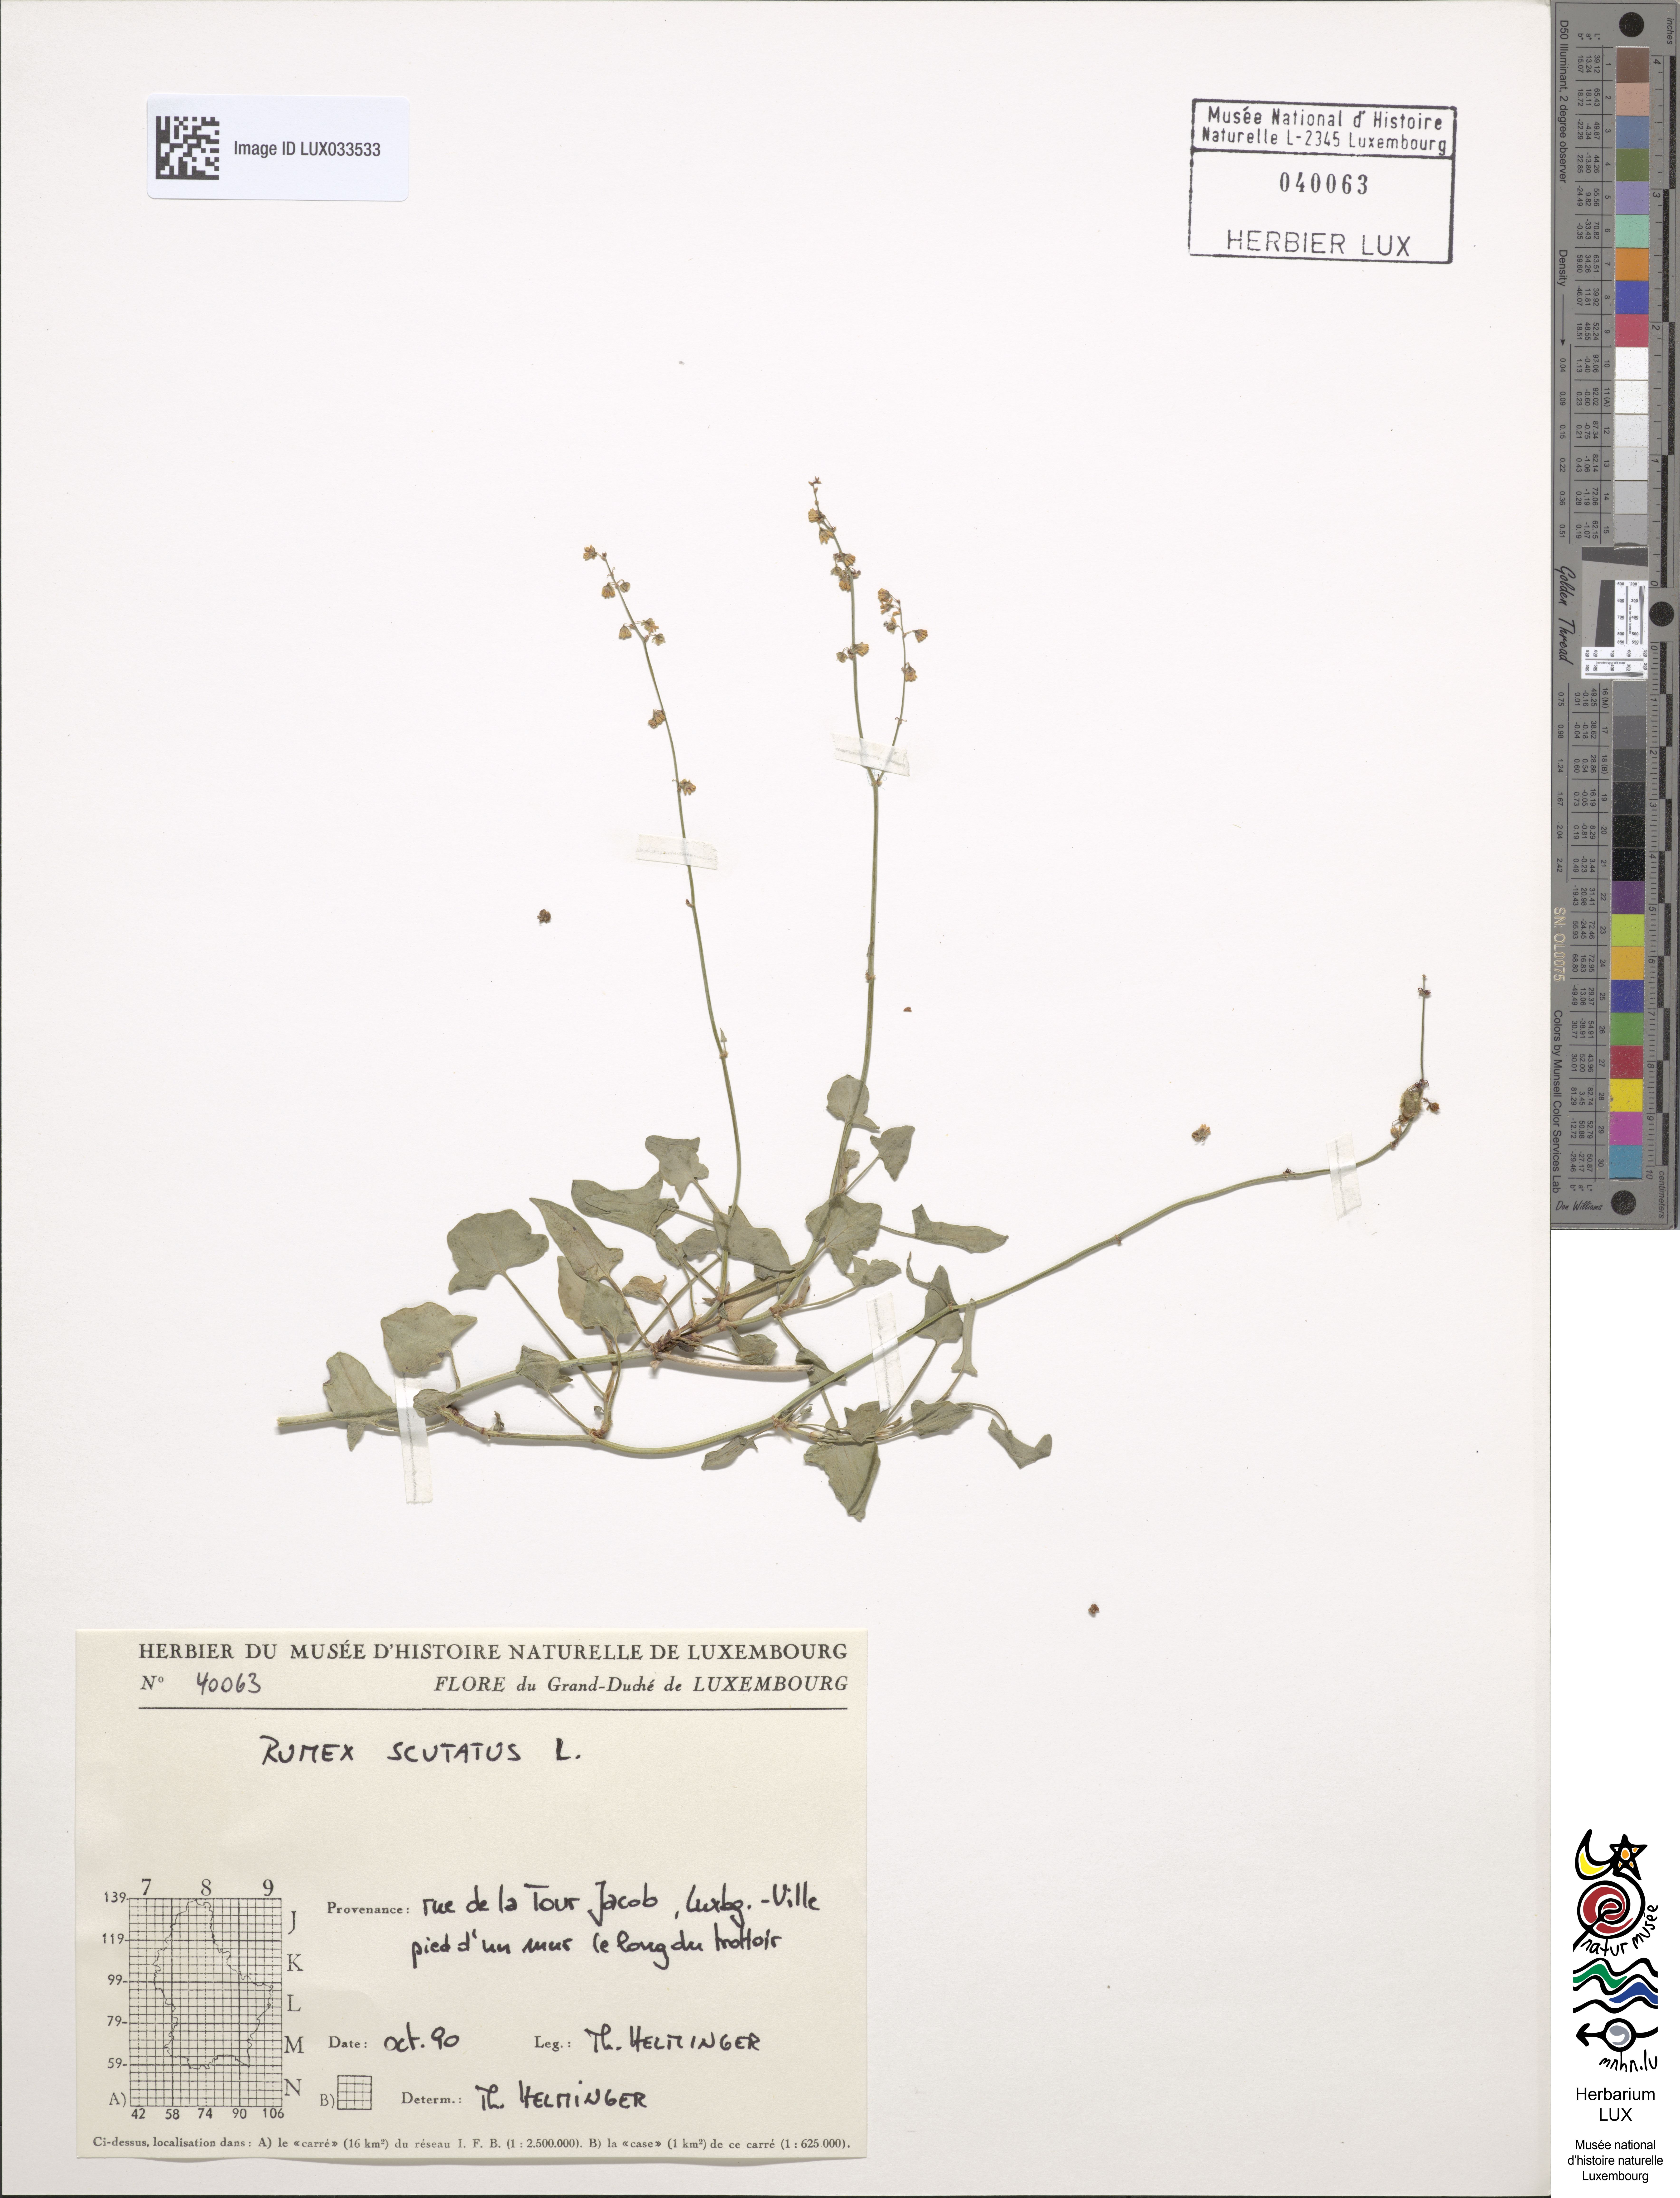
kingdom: Plantae
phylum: Tracheophyta
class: Magnoliopsida
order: Caryophyllales
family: Polygonaceae
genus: Rumex
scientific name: Rumex scutatus
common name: French sorrel
